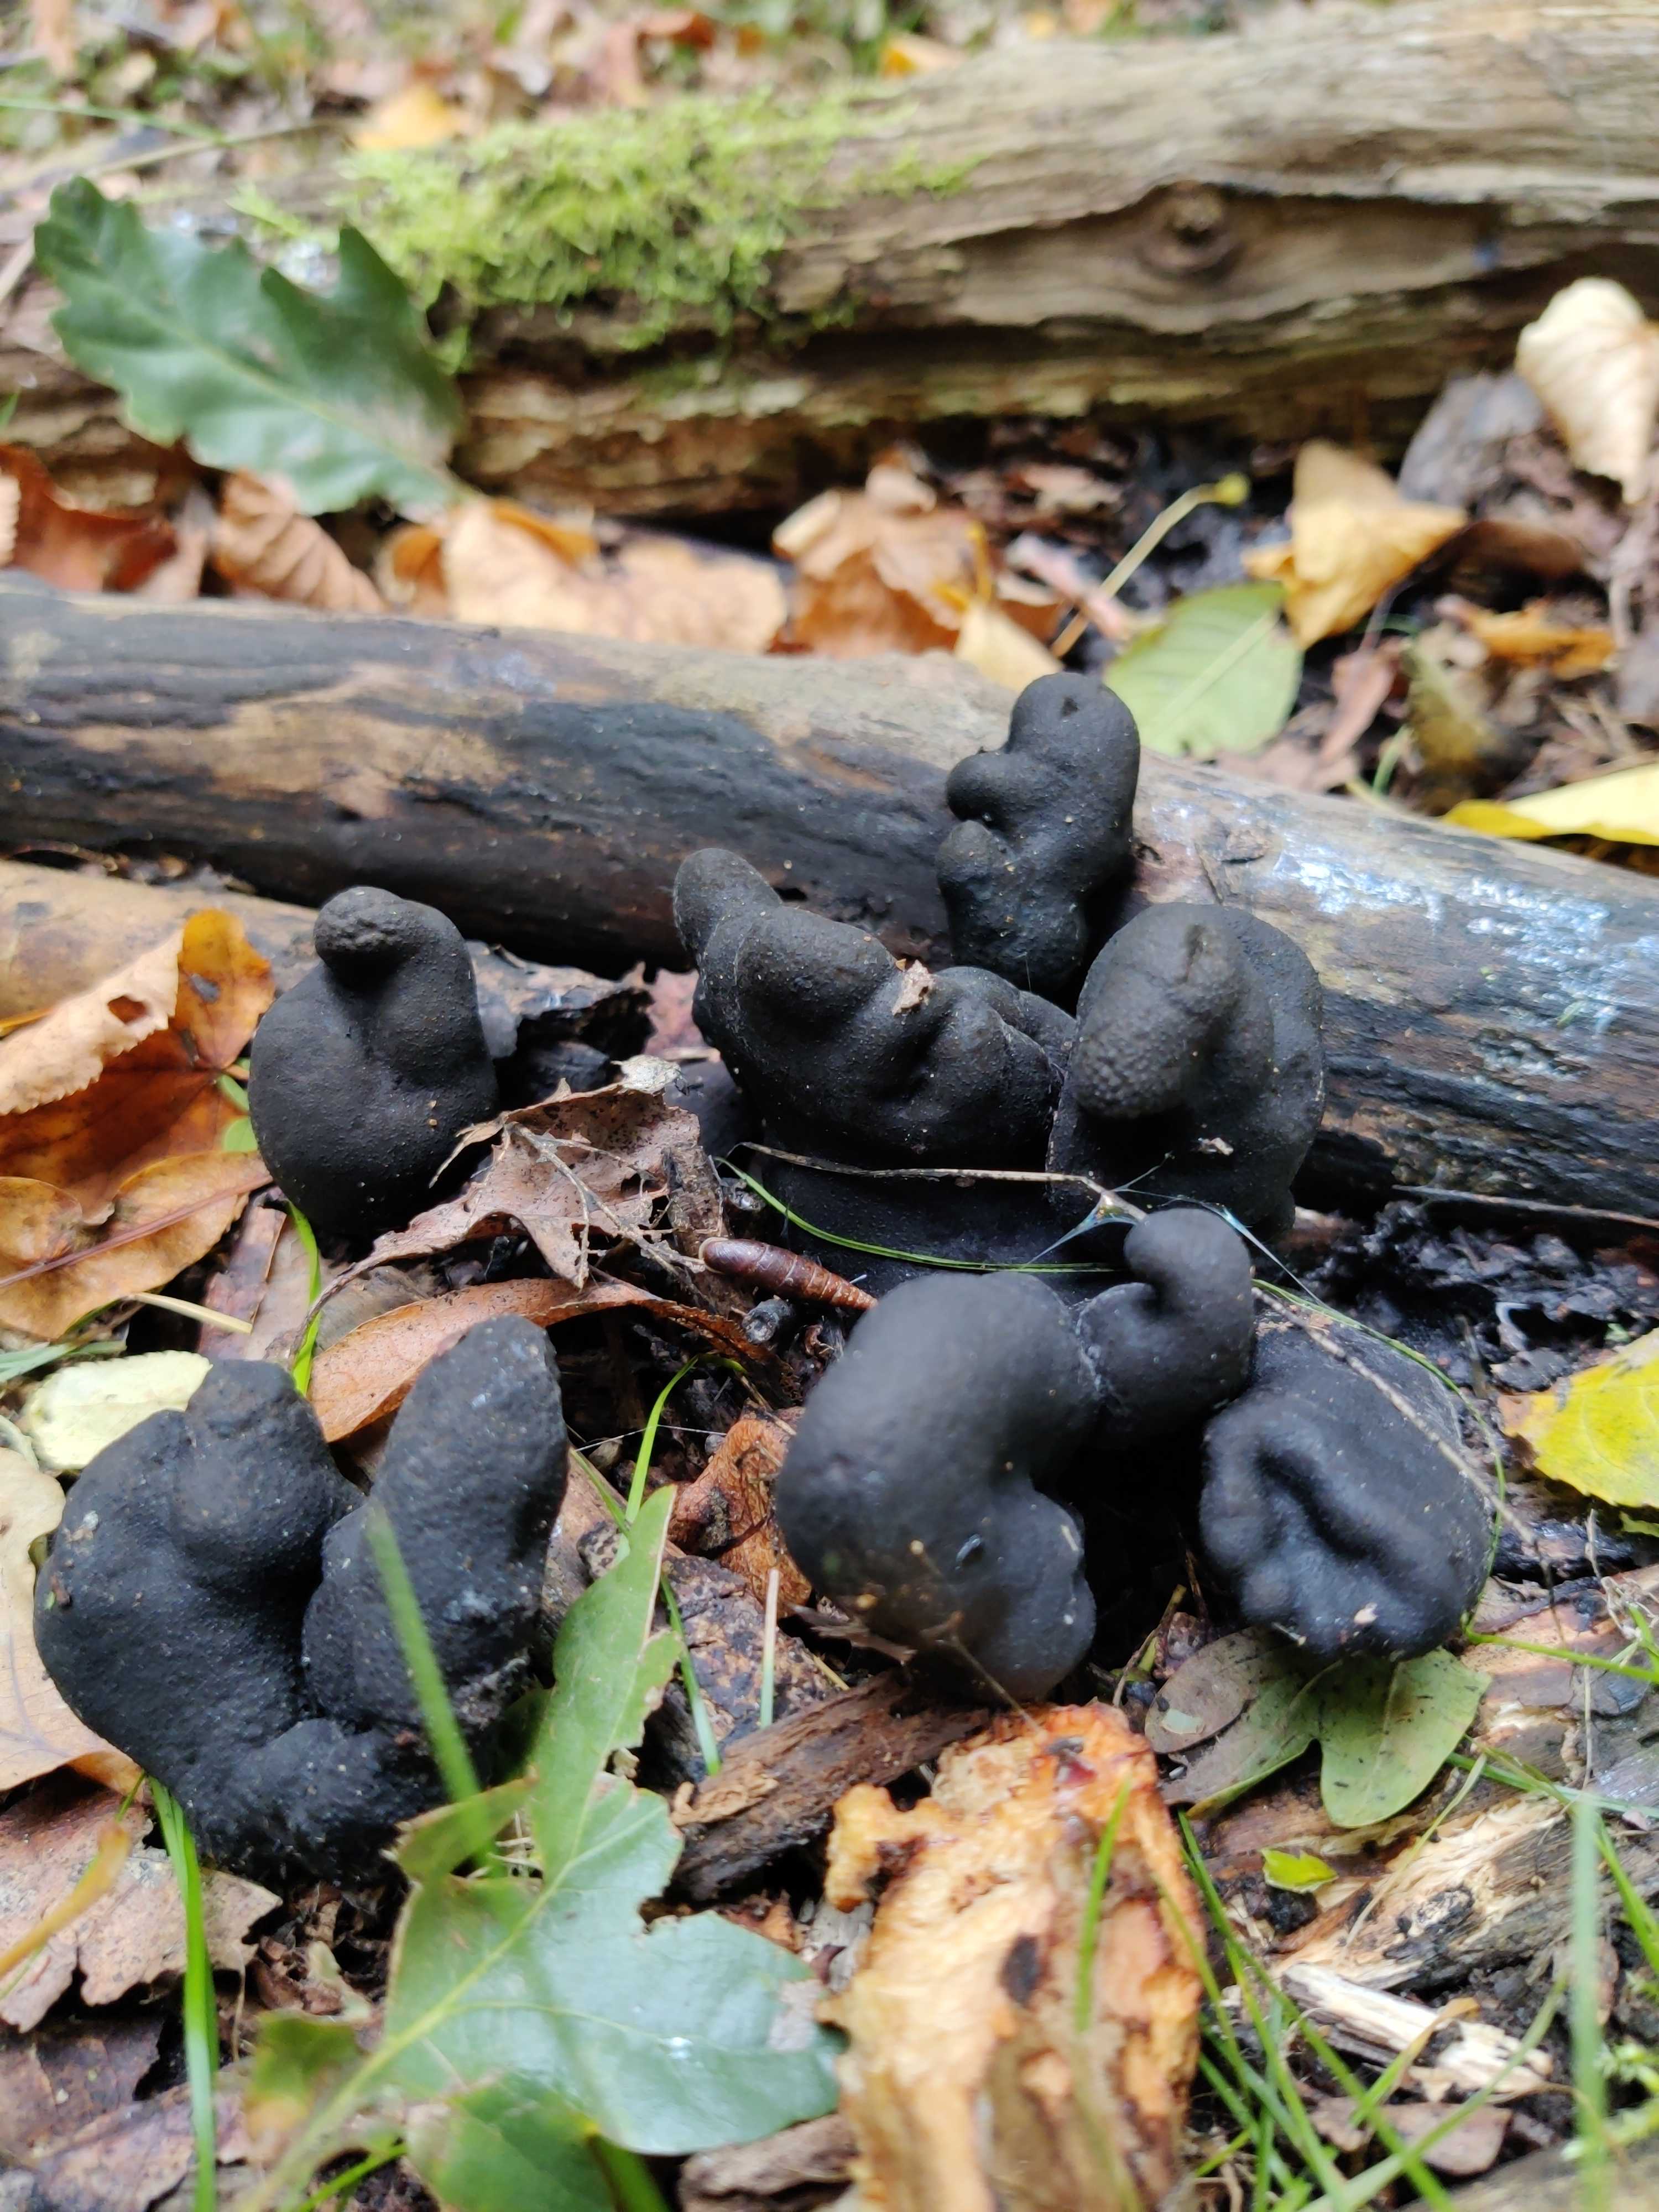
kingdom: Fungi
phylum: Ascomycota
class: Sordariomycetes
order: Xylariales
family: Xylariaceae
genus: Xylaria
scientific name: Xylaria polymorpha
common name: kølle-stødsvamp
